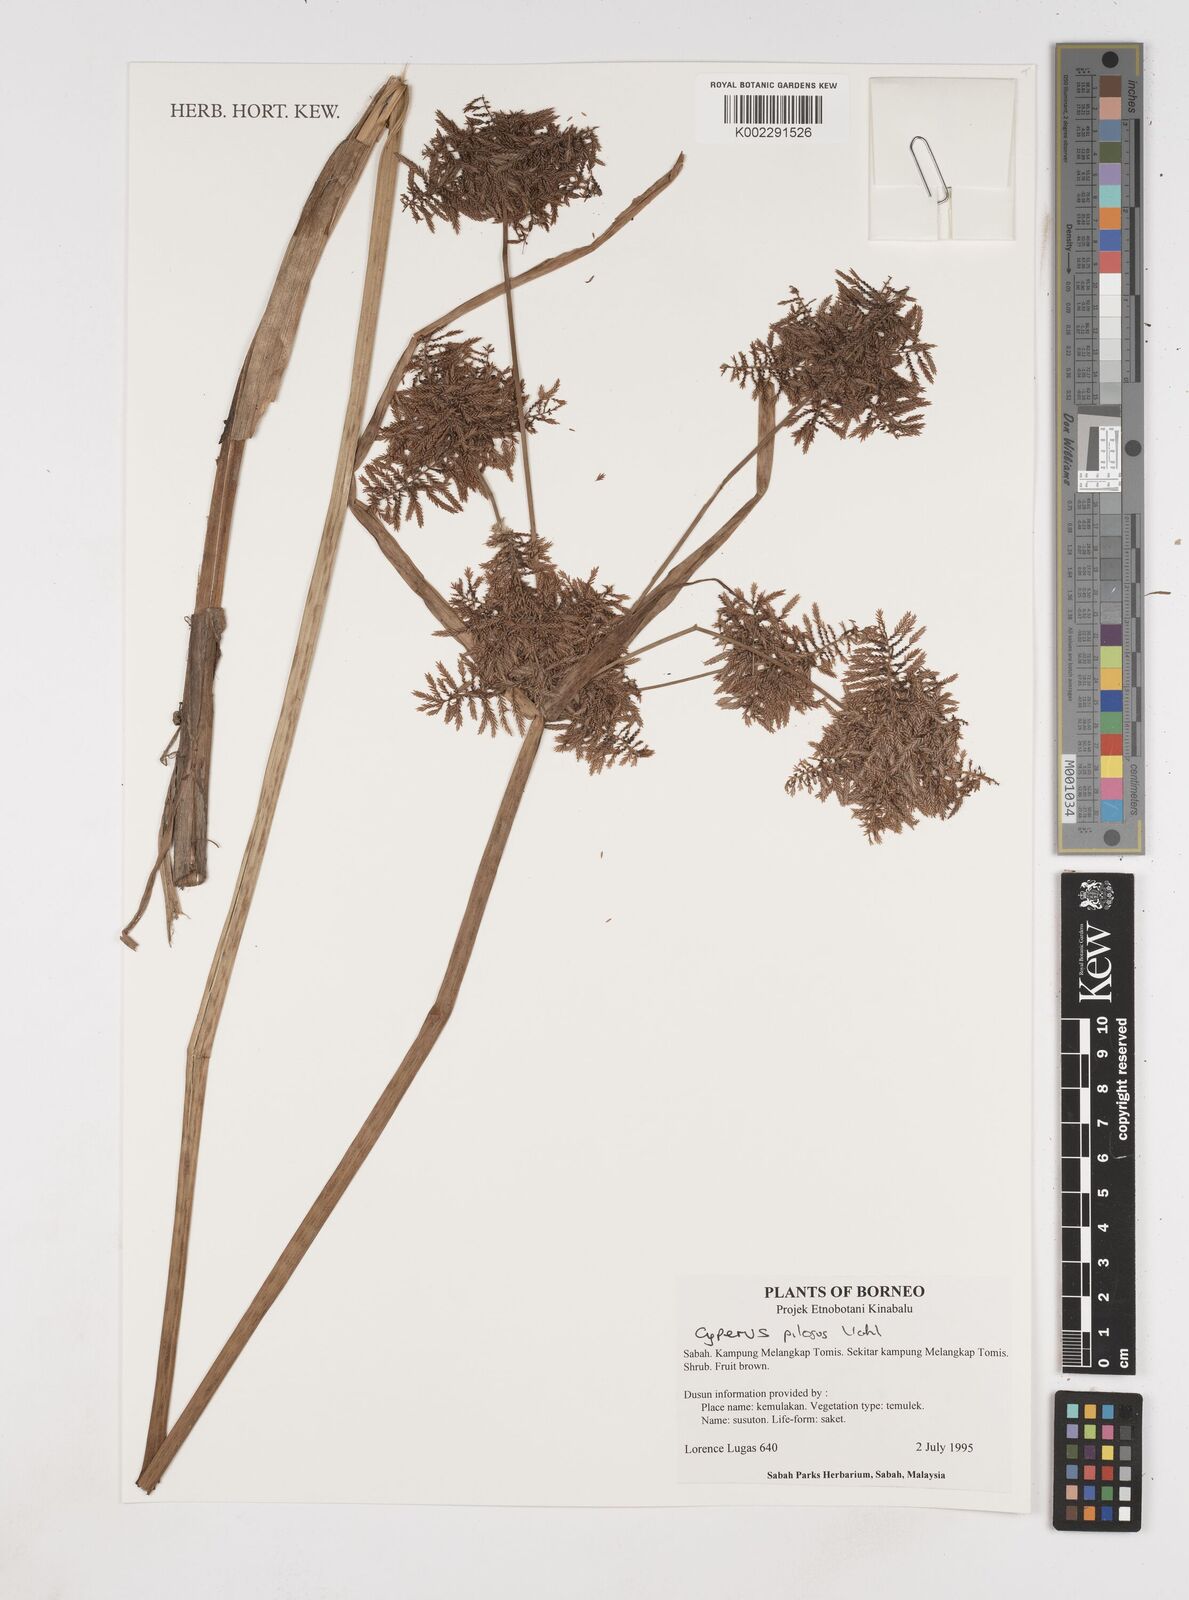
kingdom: Plantae
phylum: Tracheophyta
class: Liliopsida
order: Poales
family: Cyperaceae
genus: Cyperus
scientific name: Cyperus pilosus
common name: Fuzzy flatsedge
